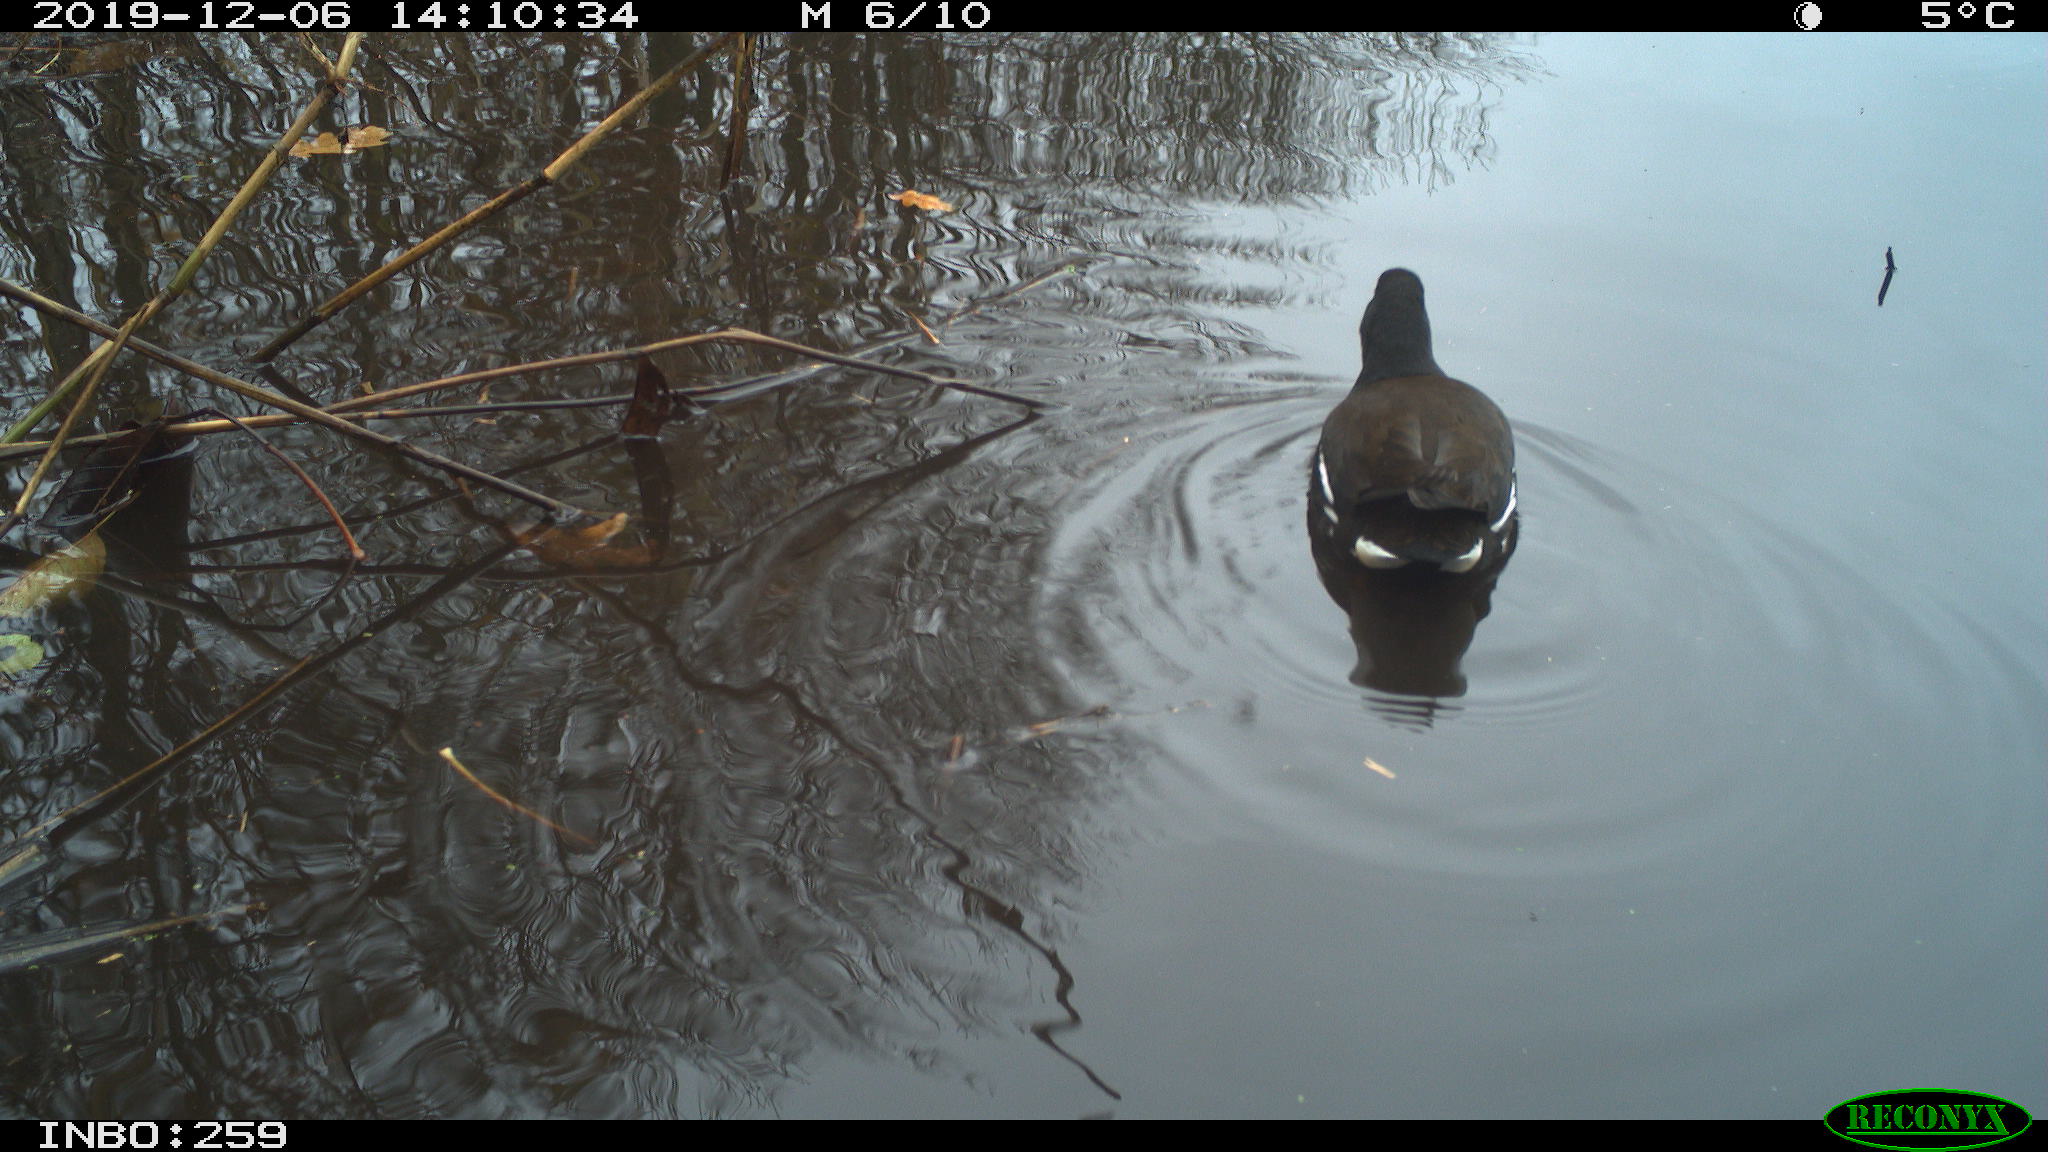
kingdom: Animalia
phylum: Chordata
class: Aves
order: Gruiformes
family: Rallidae
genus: Gallinula
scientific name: Gallinula chloropus
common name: Common moorhen
